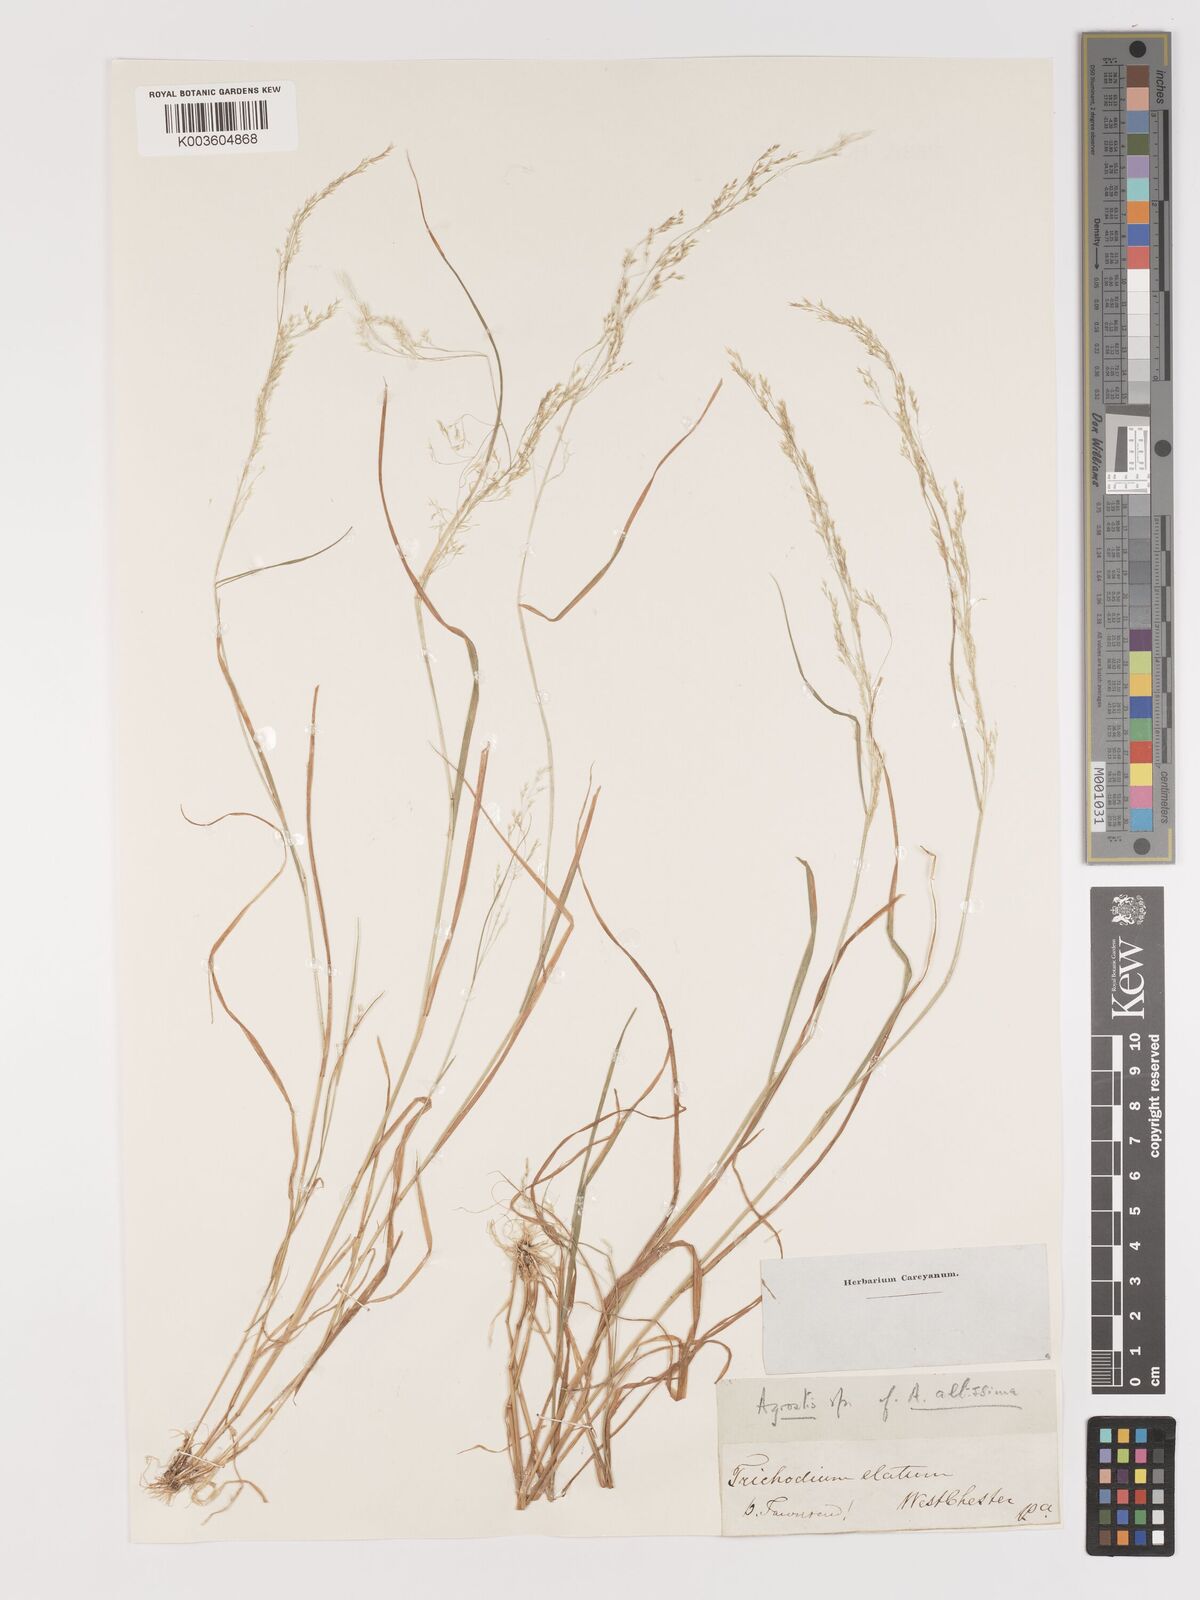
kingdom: Plantae
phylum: Tracheophyta
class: Liliopsida
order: Poales
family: Poaceae
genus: Agrostis
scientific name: Agrostis
